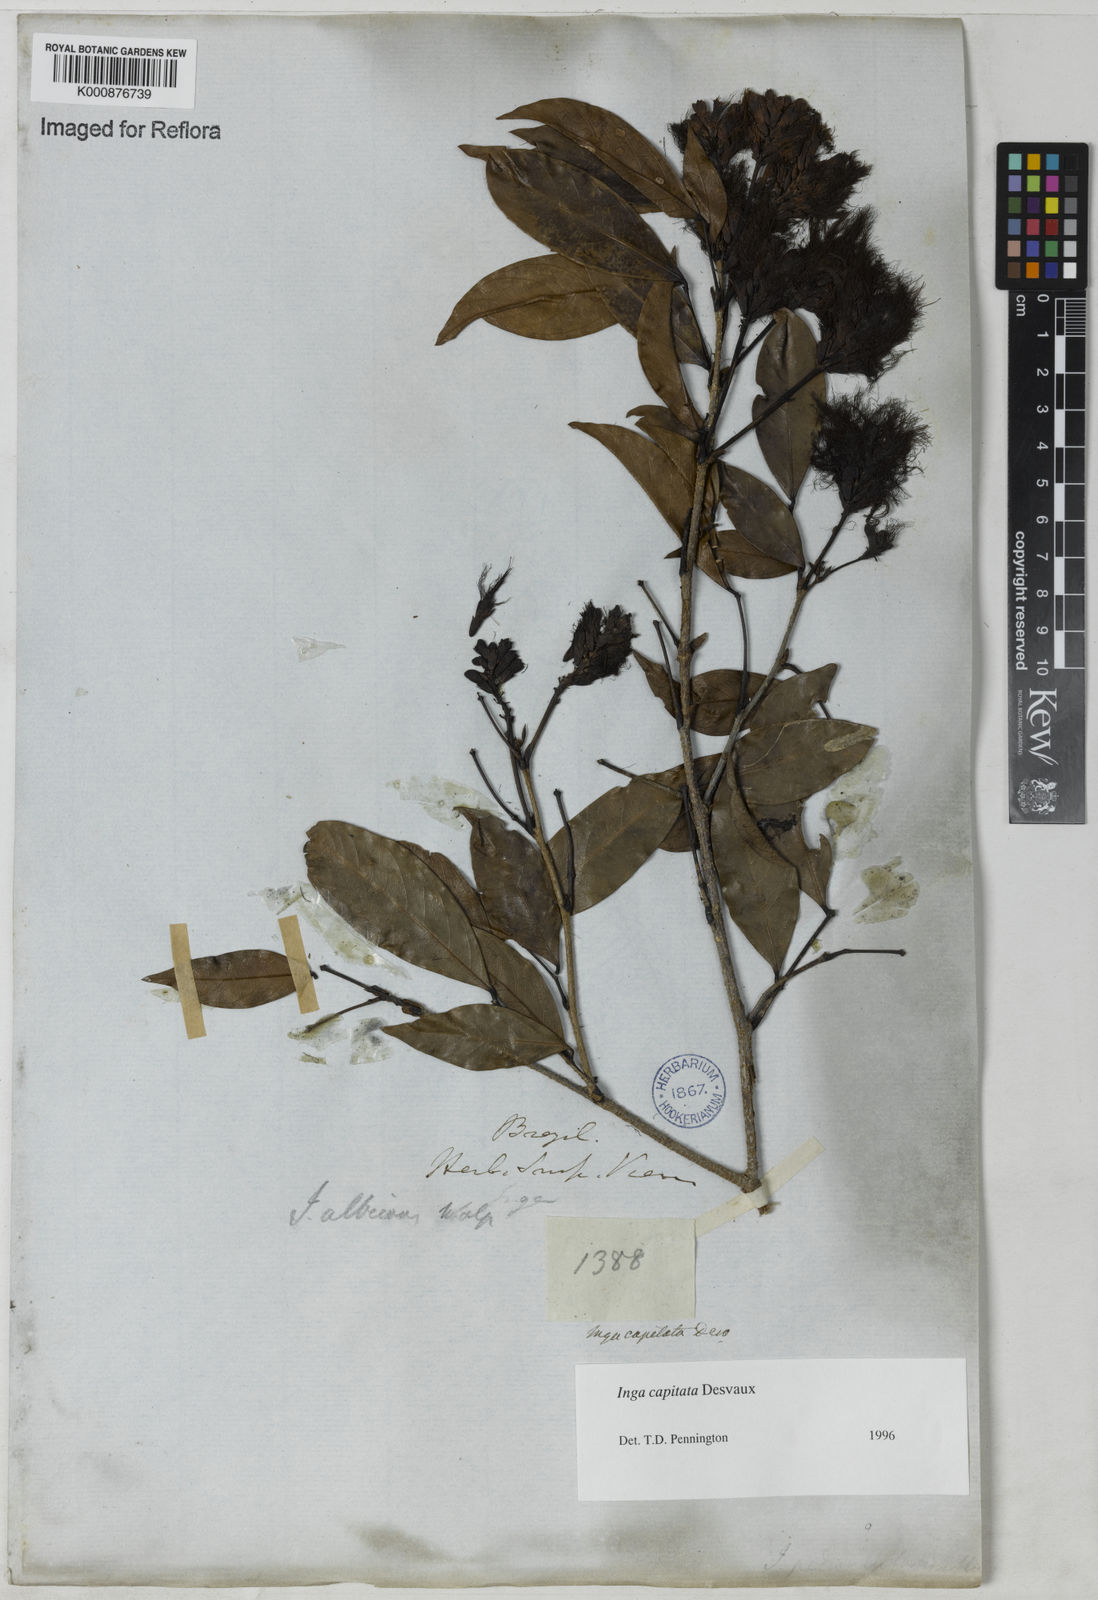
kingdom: Plantae
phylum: Tracheophyta
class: Magnoliopsida
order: Fabales
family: Fabaceae
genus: Inga
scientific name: Inga capitata
